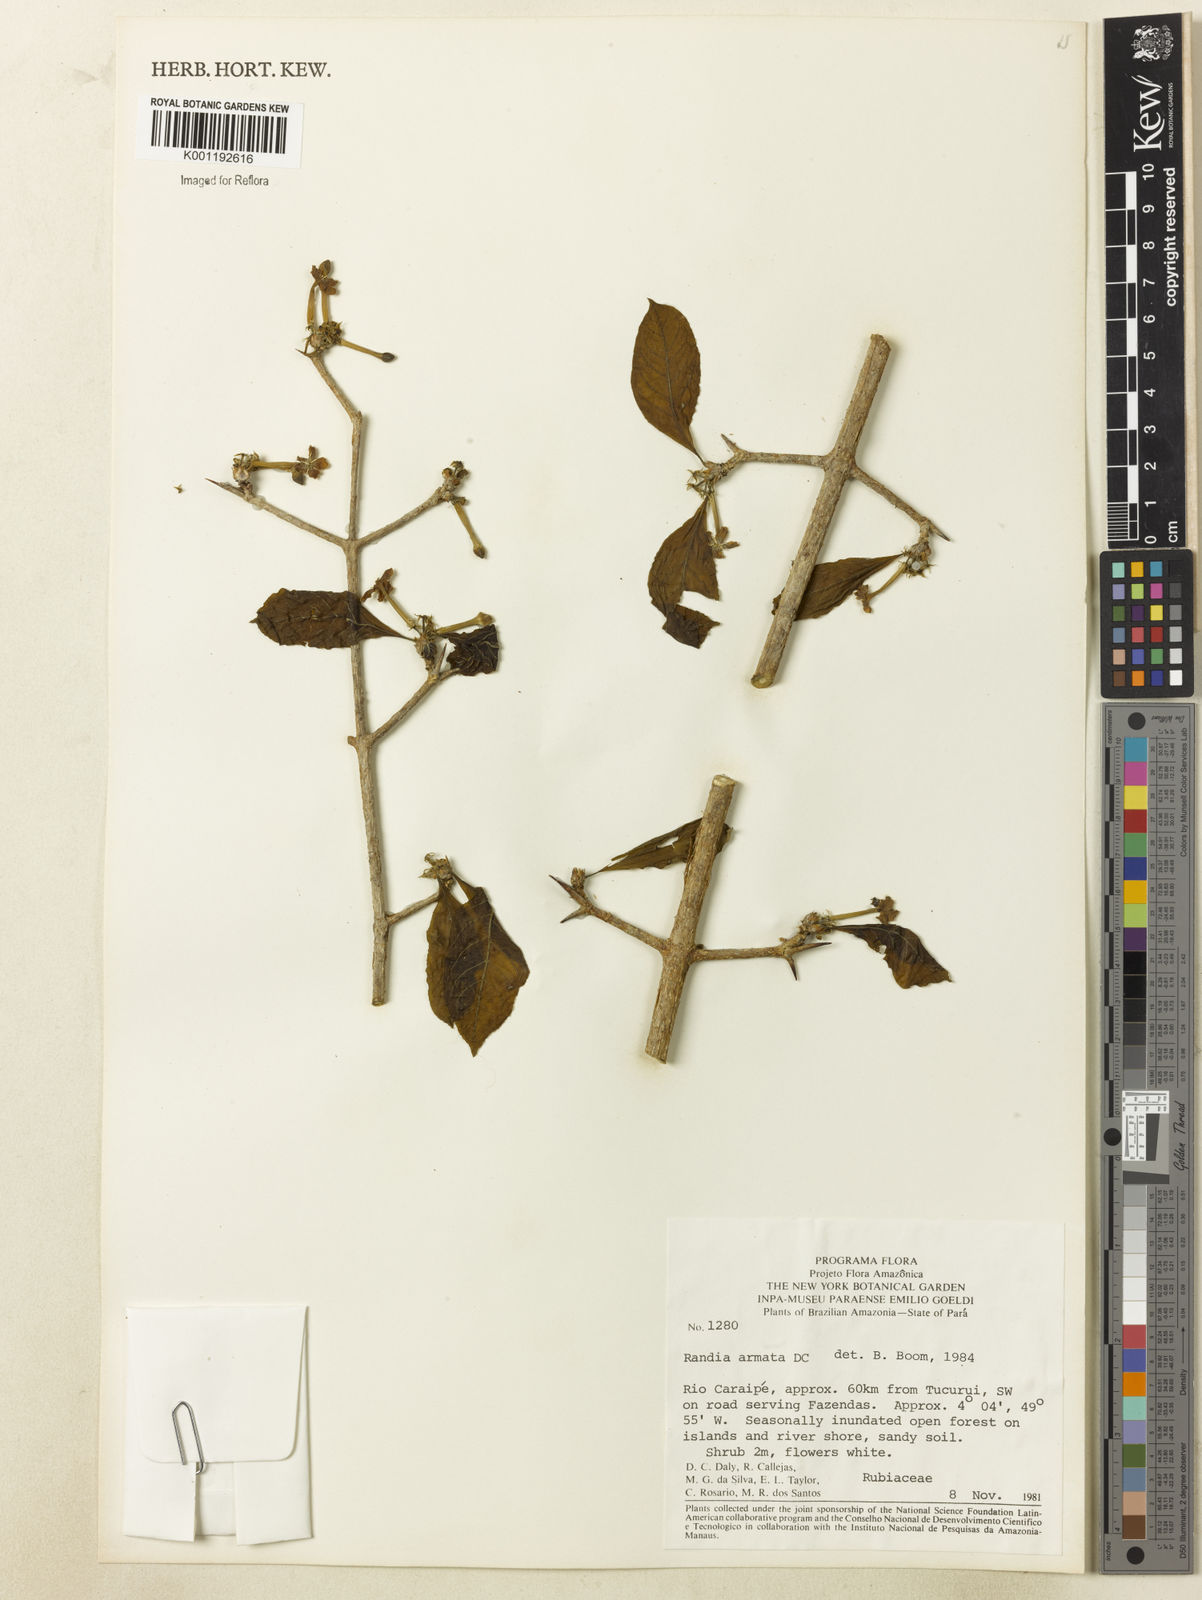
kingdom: Plantae
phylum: Tracheophyta
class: Magnoliopsida
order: Gentianales
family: Rubiaceae
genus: Randia
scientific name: Randia armata
